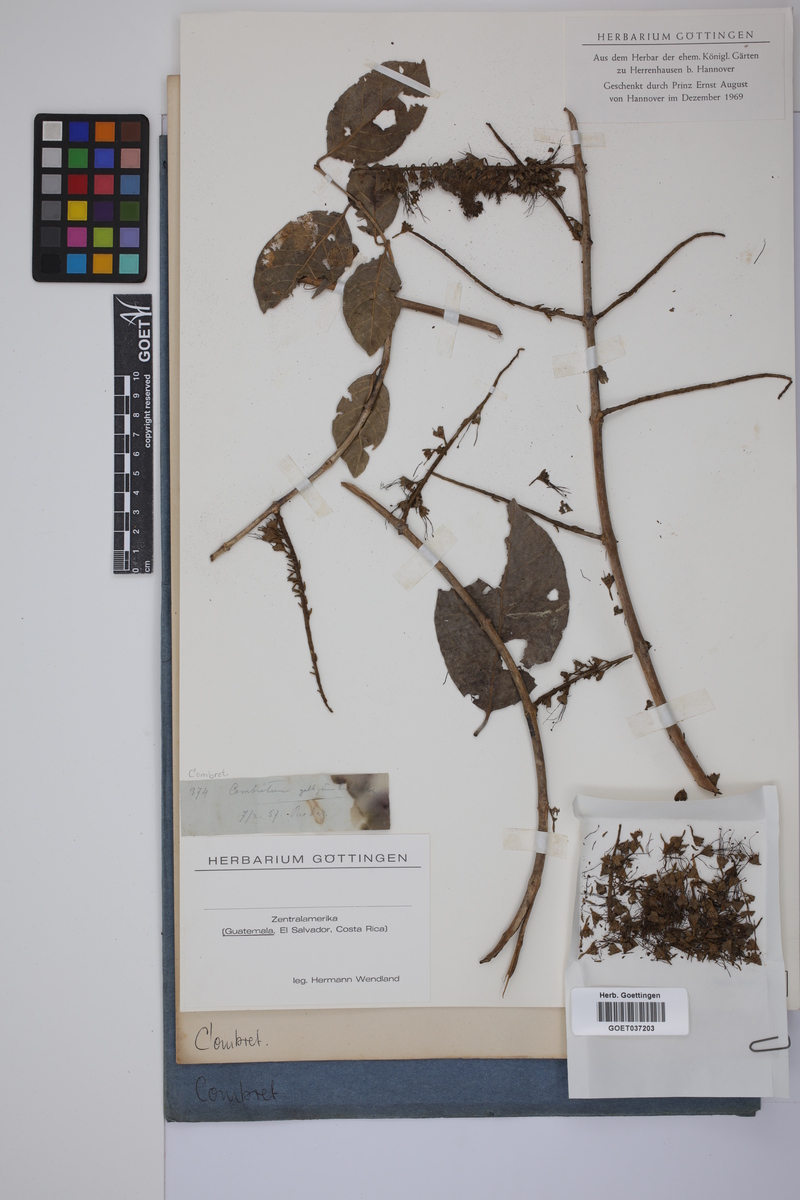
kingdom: Plantae
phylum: Tracheophyta
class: Magnoliopsida
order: Myrtales
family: Combretaceae
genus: Combretum
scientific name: Combretum
